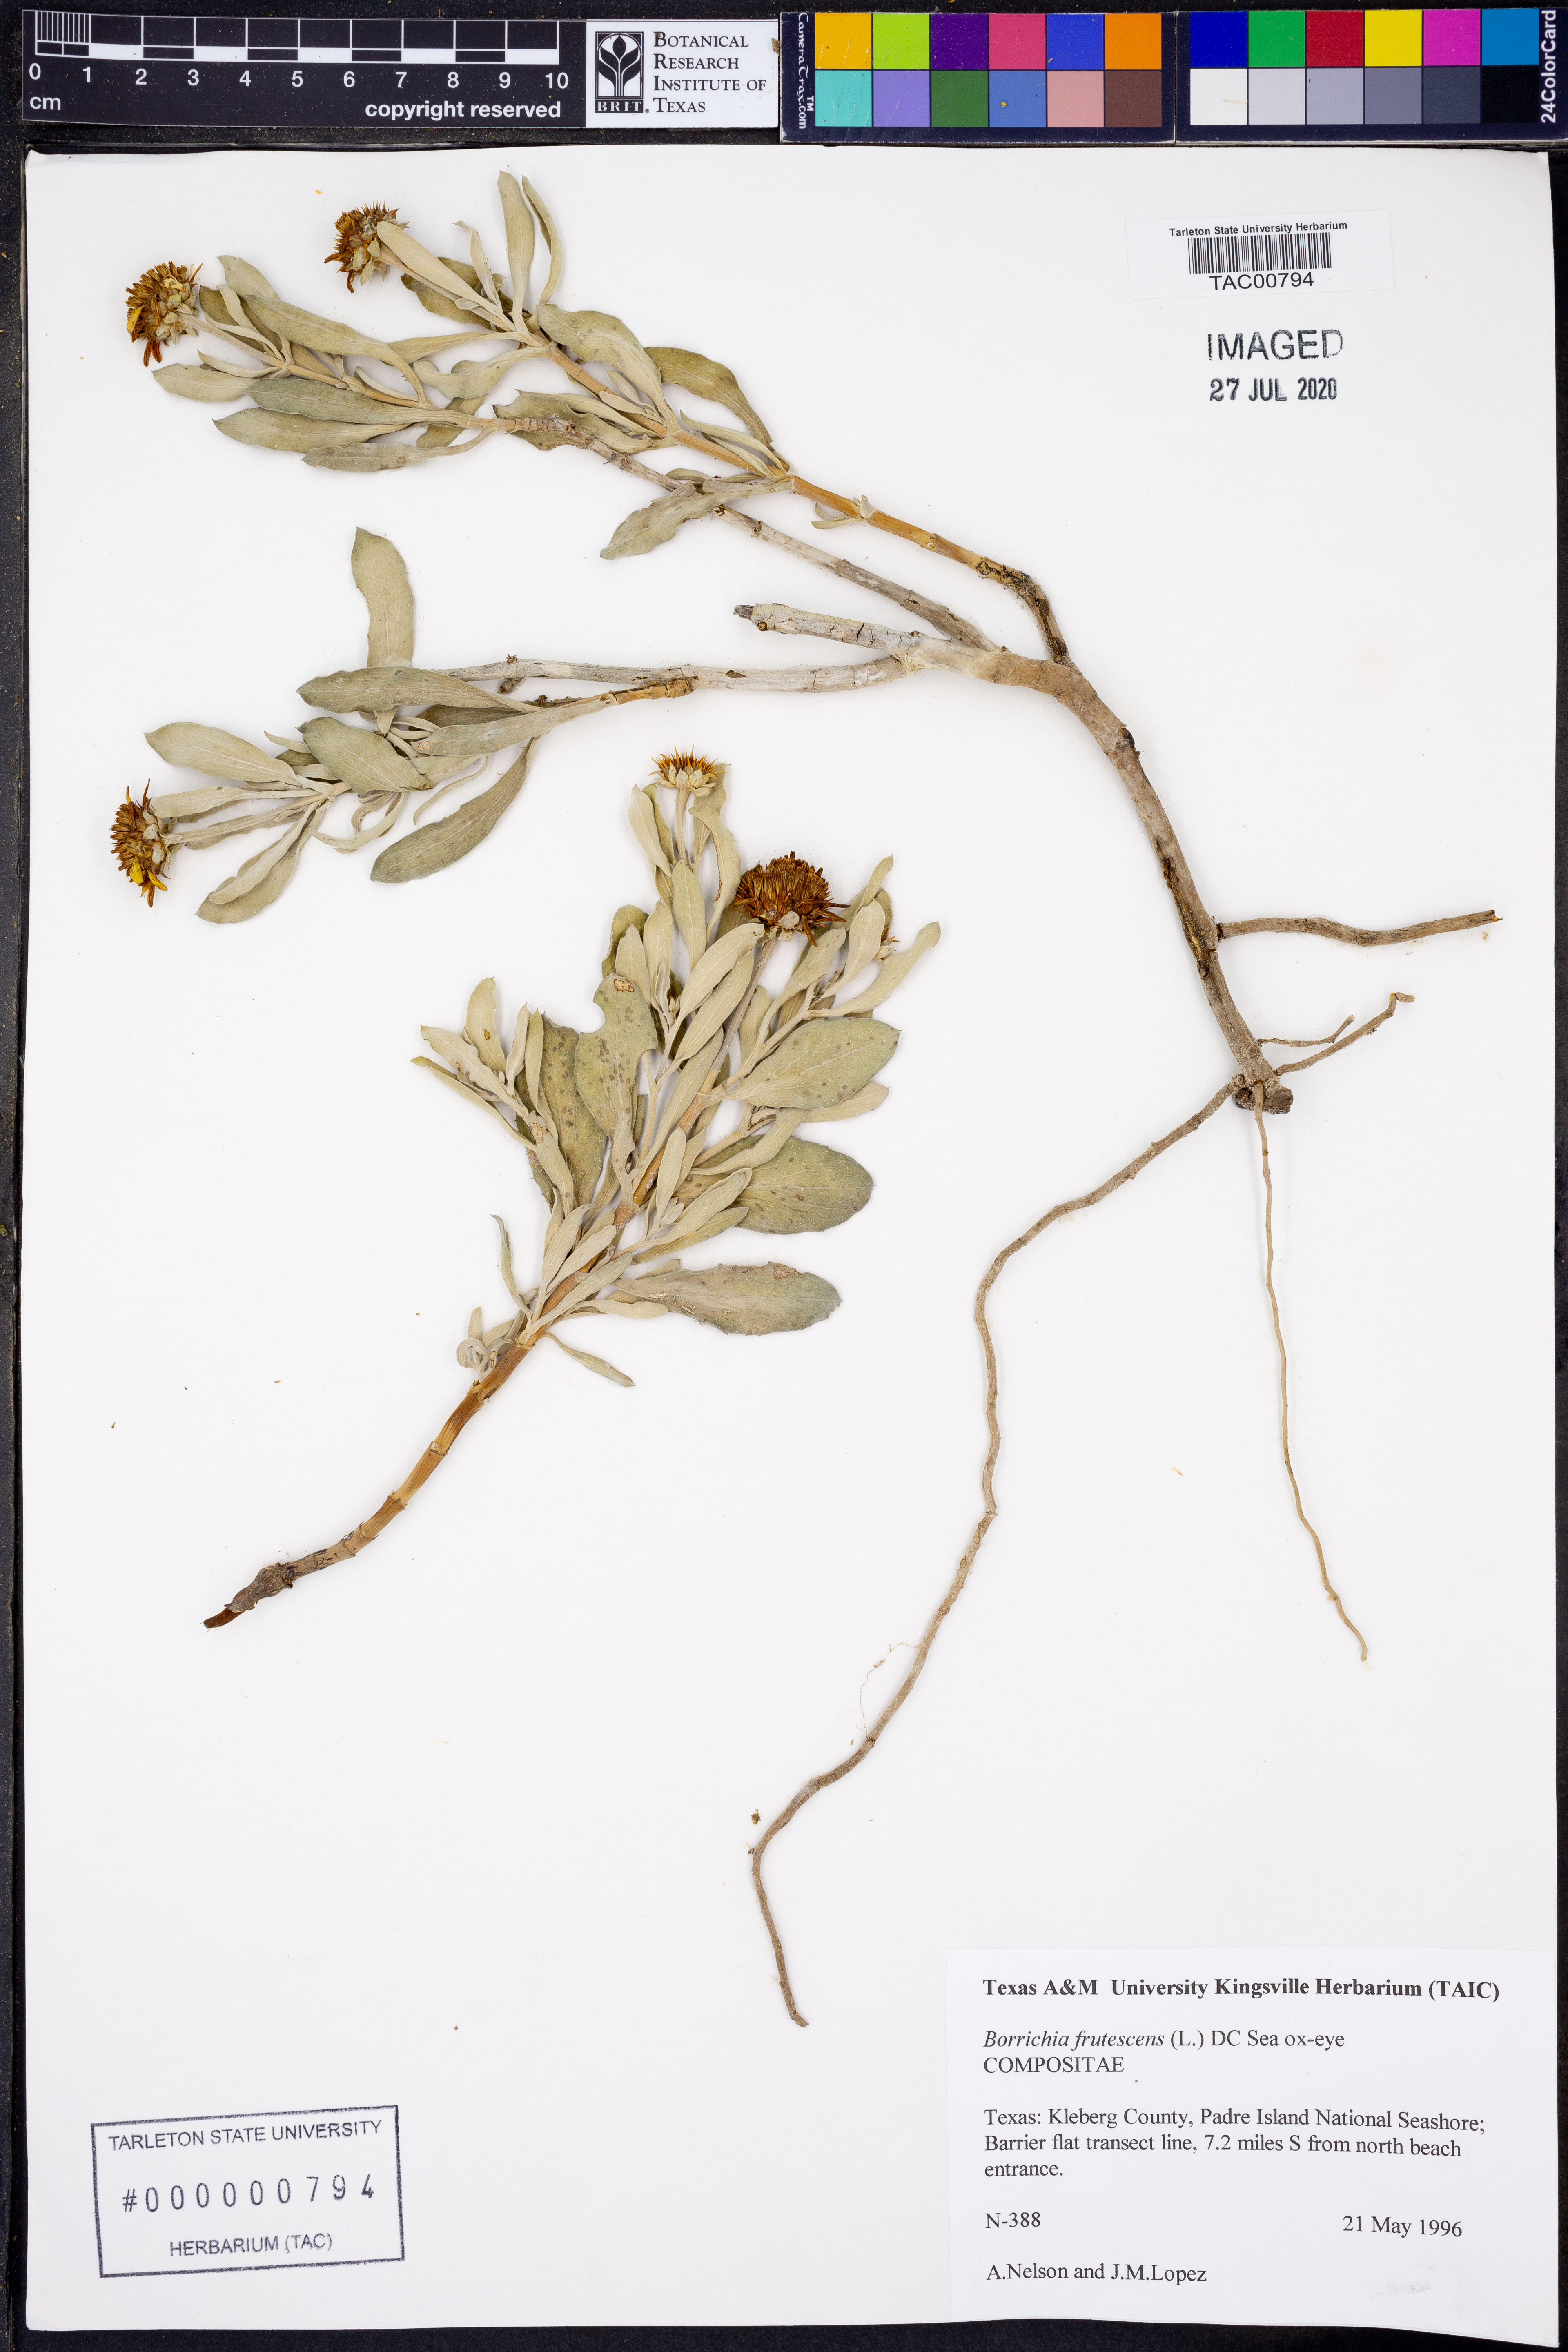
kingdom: Plantae
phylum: Tracheophyta
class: Magnoliopsida
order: Asterales
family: Asteraceae
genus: Borrichia
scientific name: Borrichia frutescens
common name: Sea oxeye
